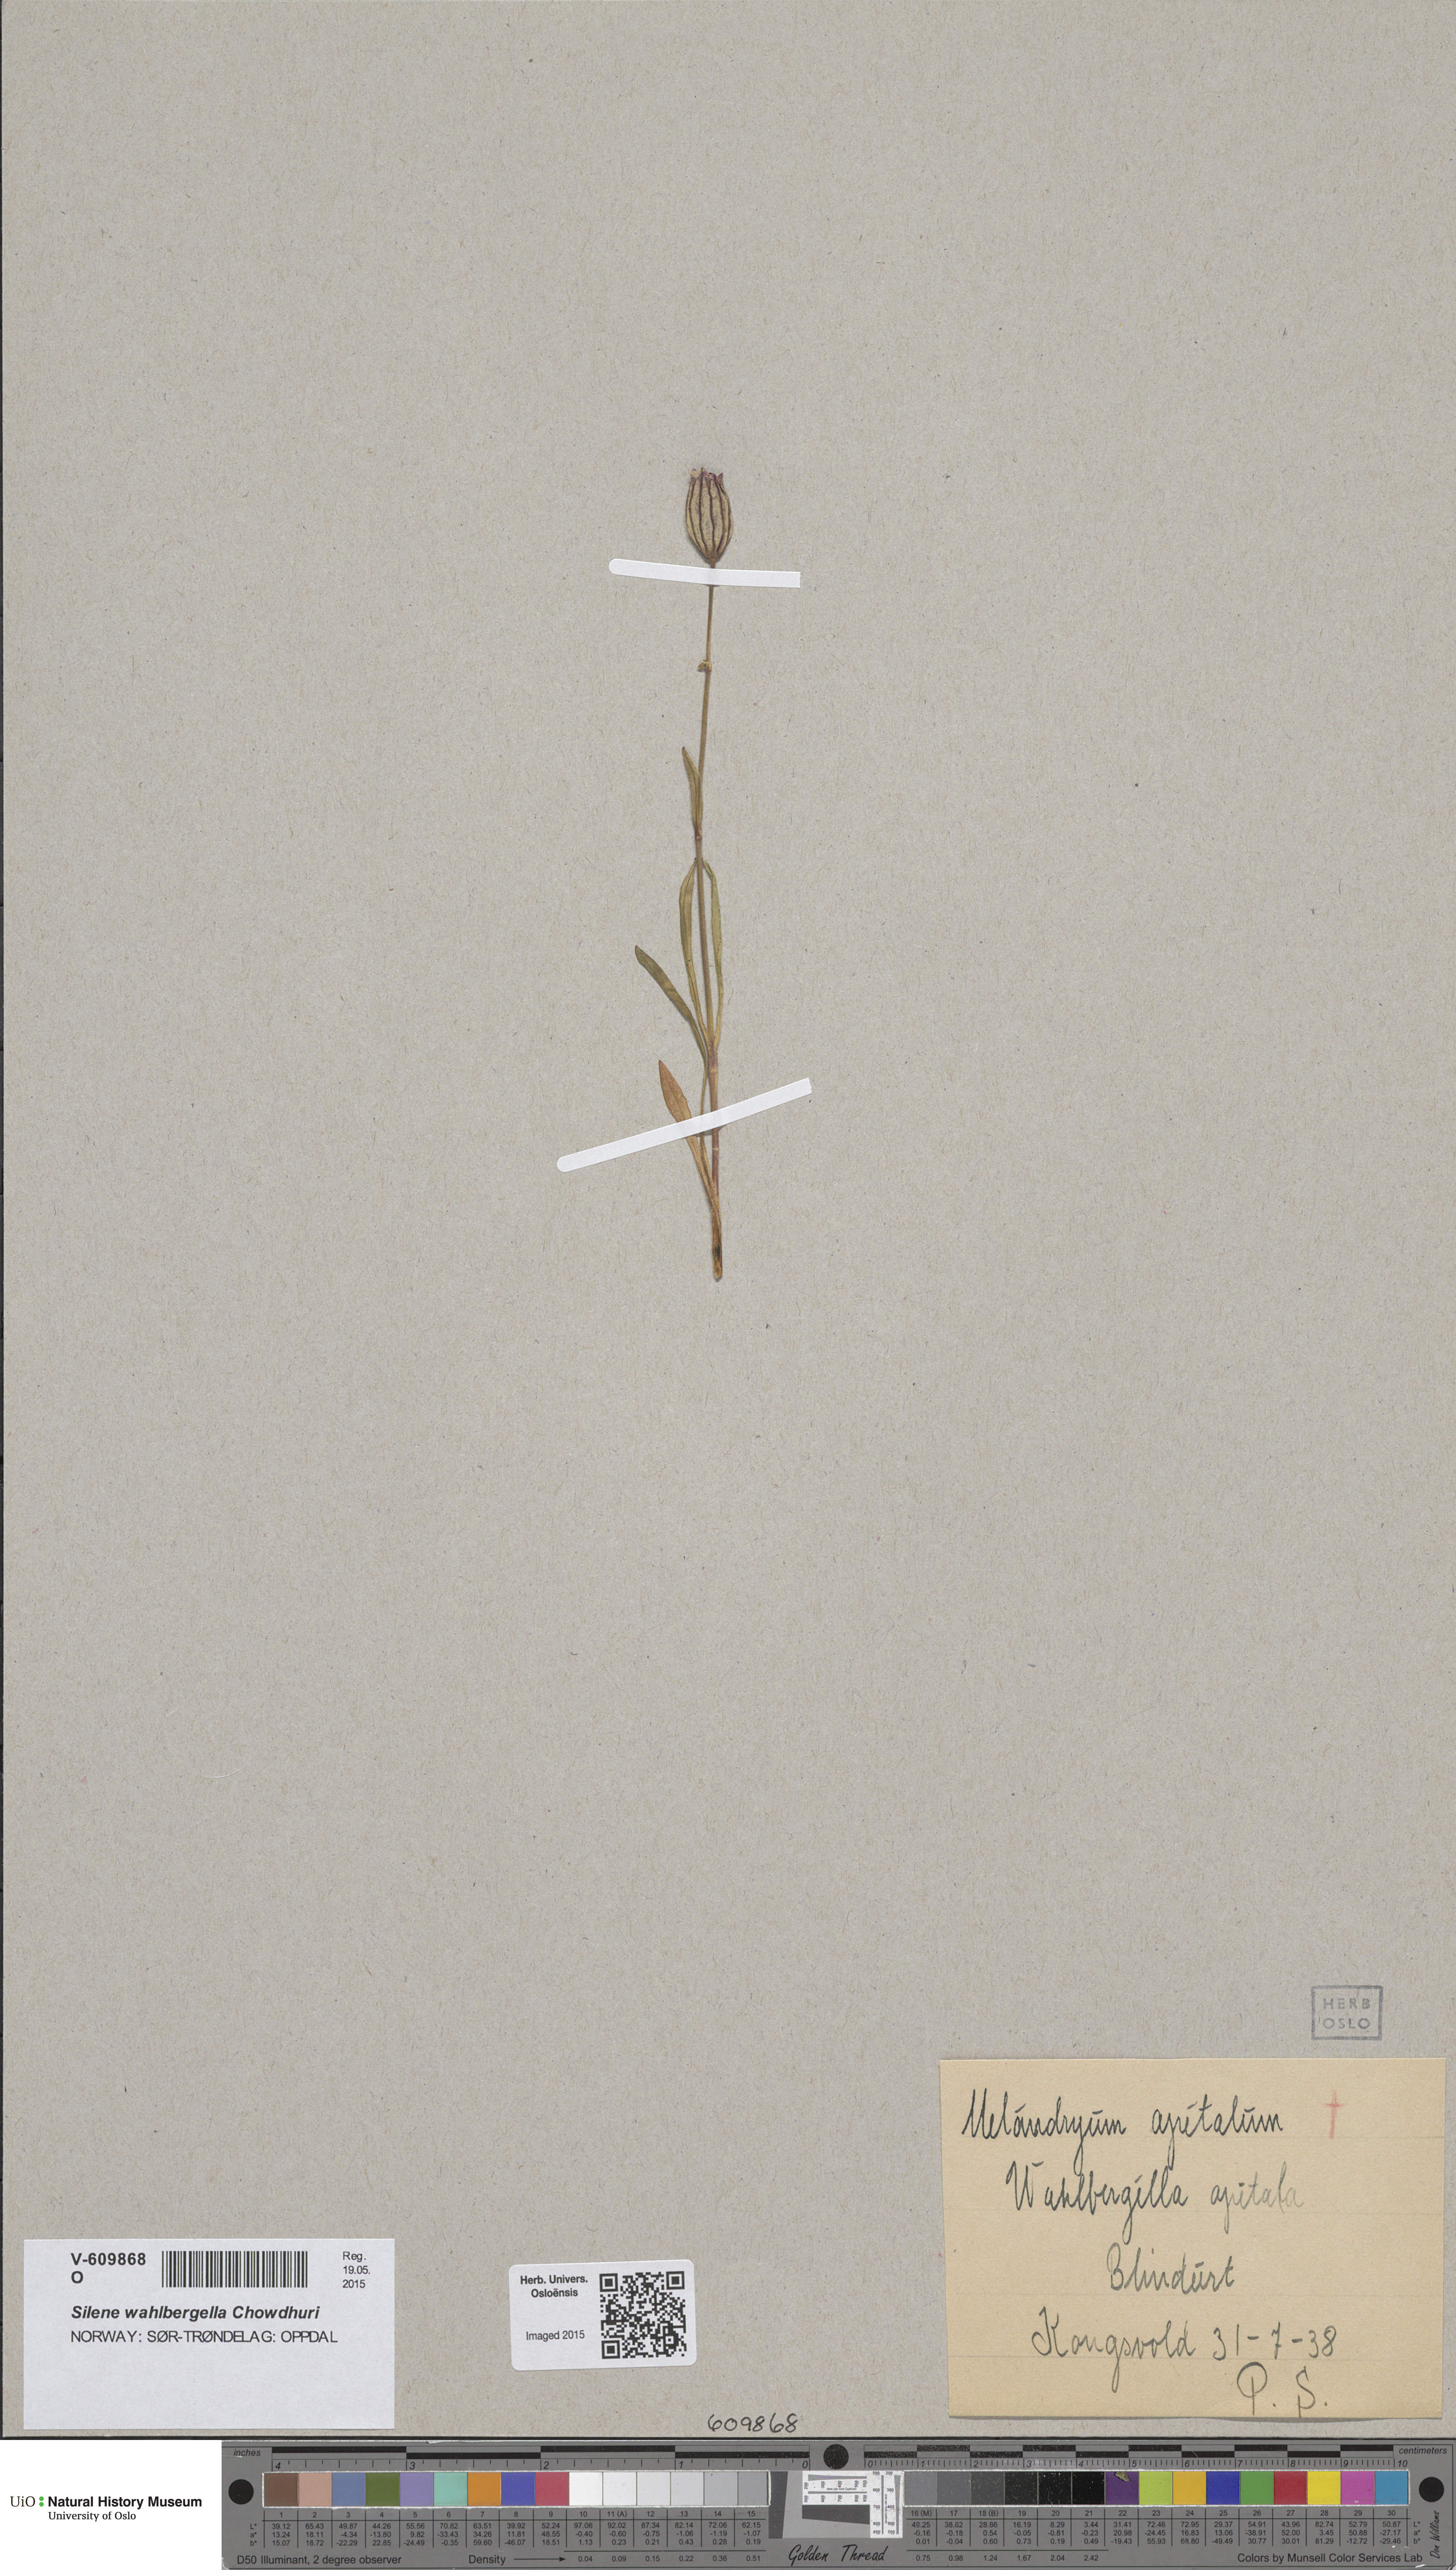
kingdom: Plantae
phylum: Tracheophyta
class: Magnoliopsida
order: Caryophyllales
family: Caryophyllaceae
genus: Silene
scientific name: Silene wahlbergella
